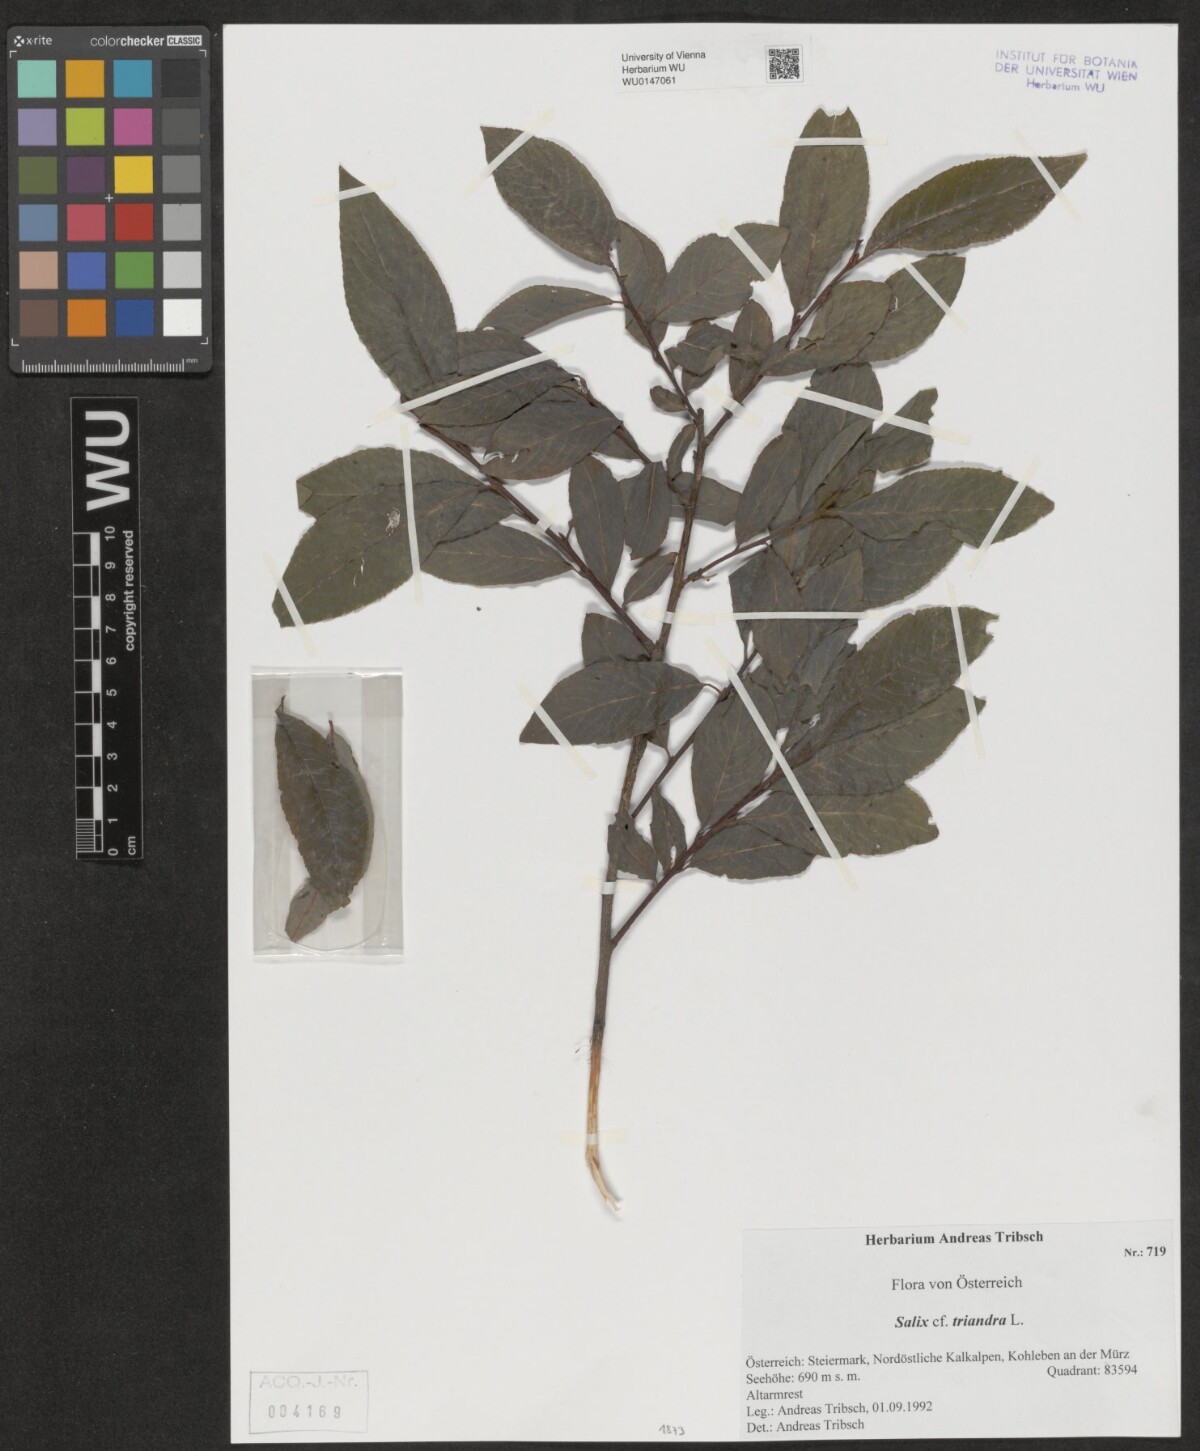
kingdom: Plantae
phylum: Tracheophyta
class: Magnoliopsida
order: Malpighiales
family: Salicaceae
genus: Salix
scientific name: Salix triandra
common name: Almond willow
